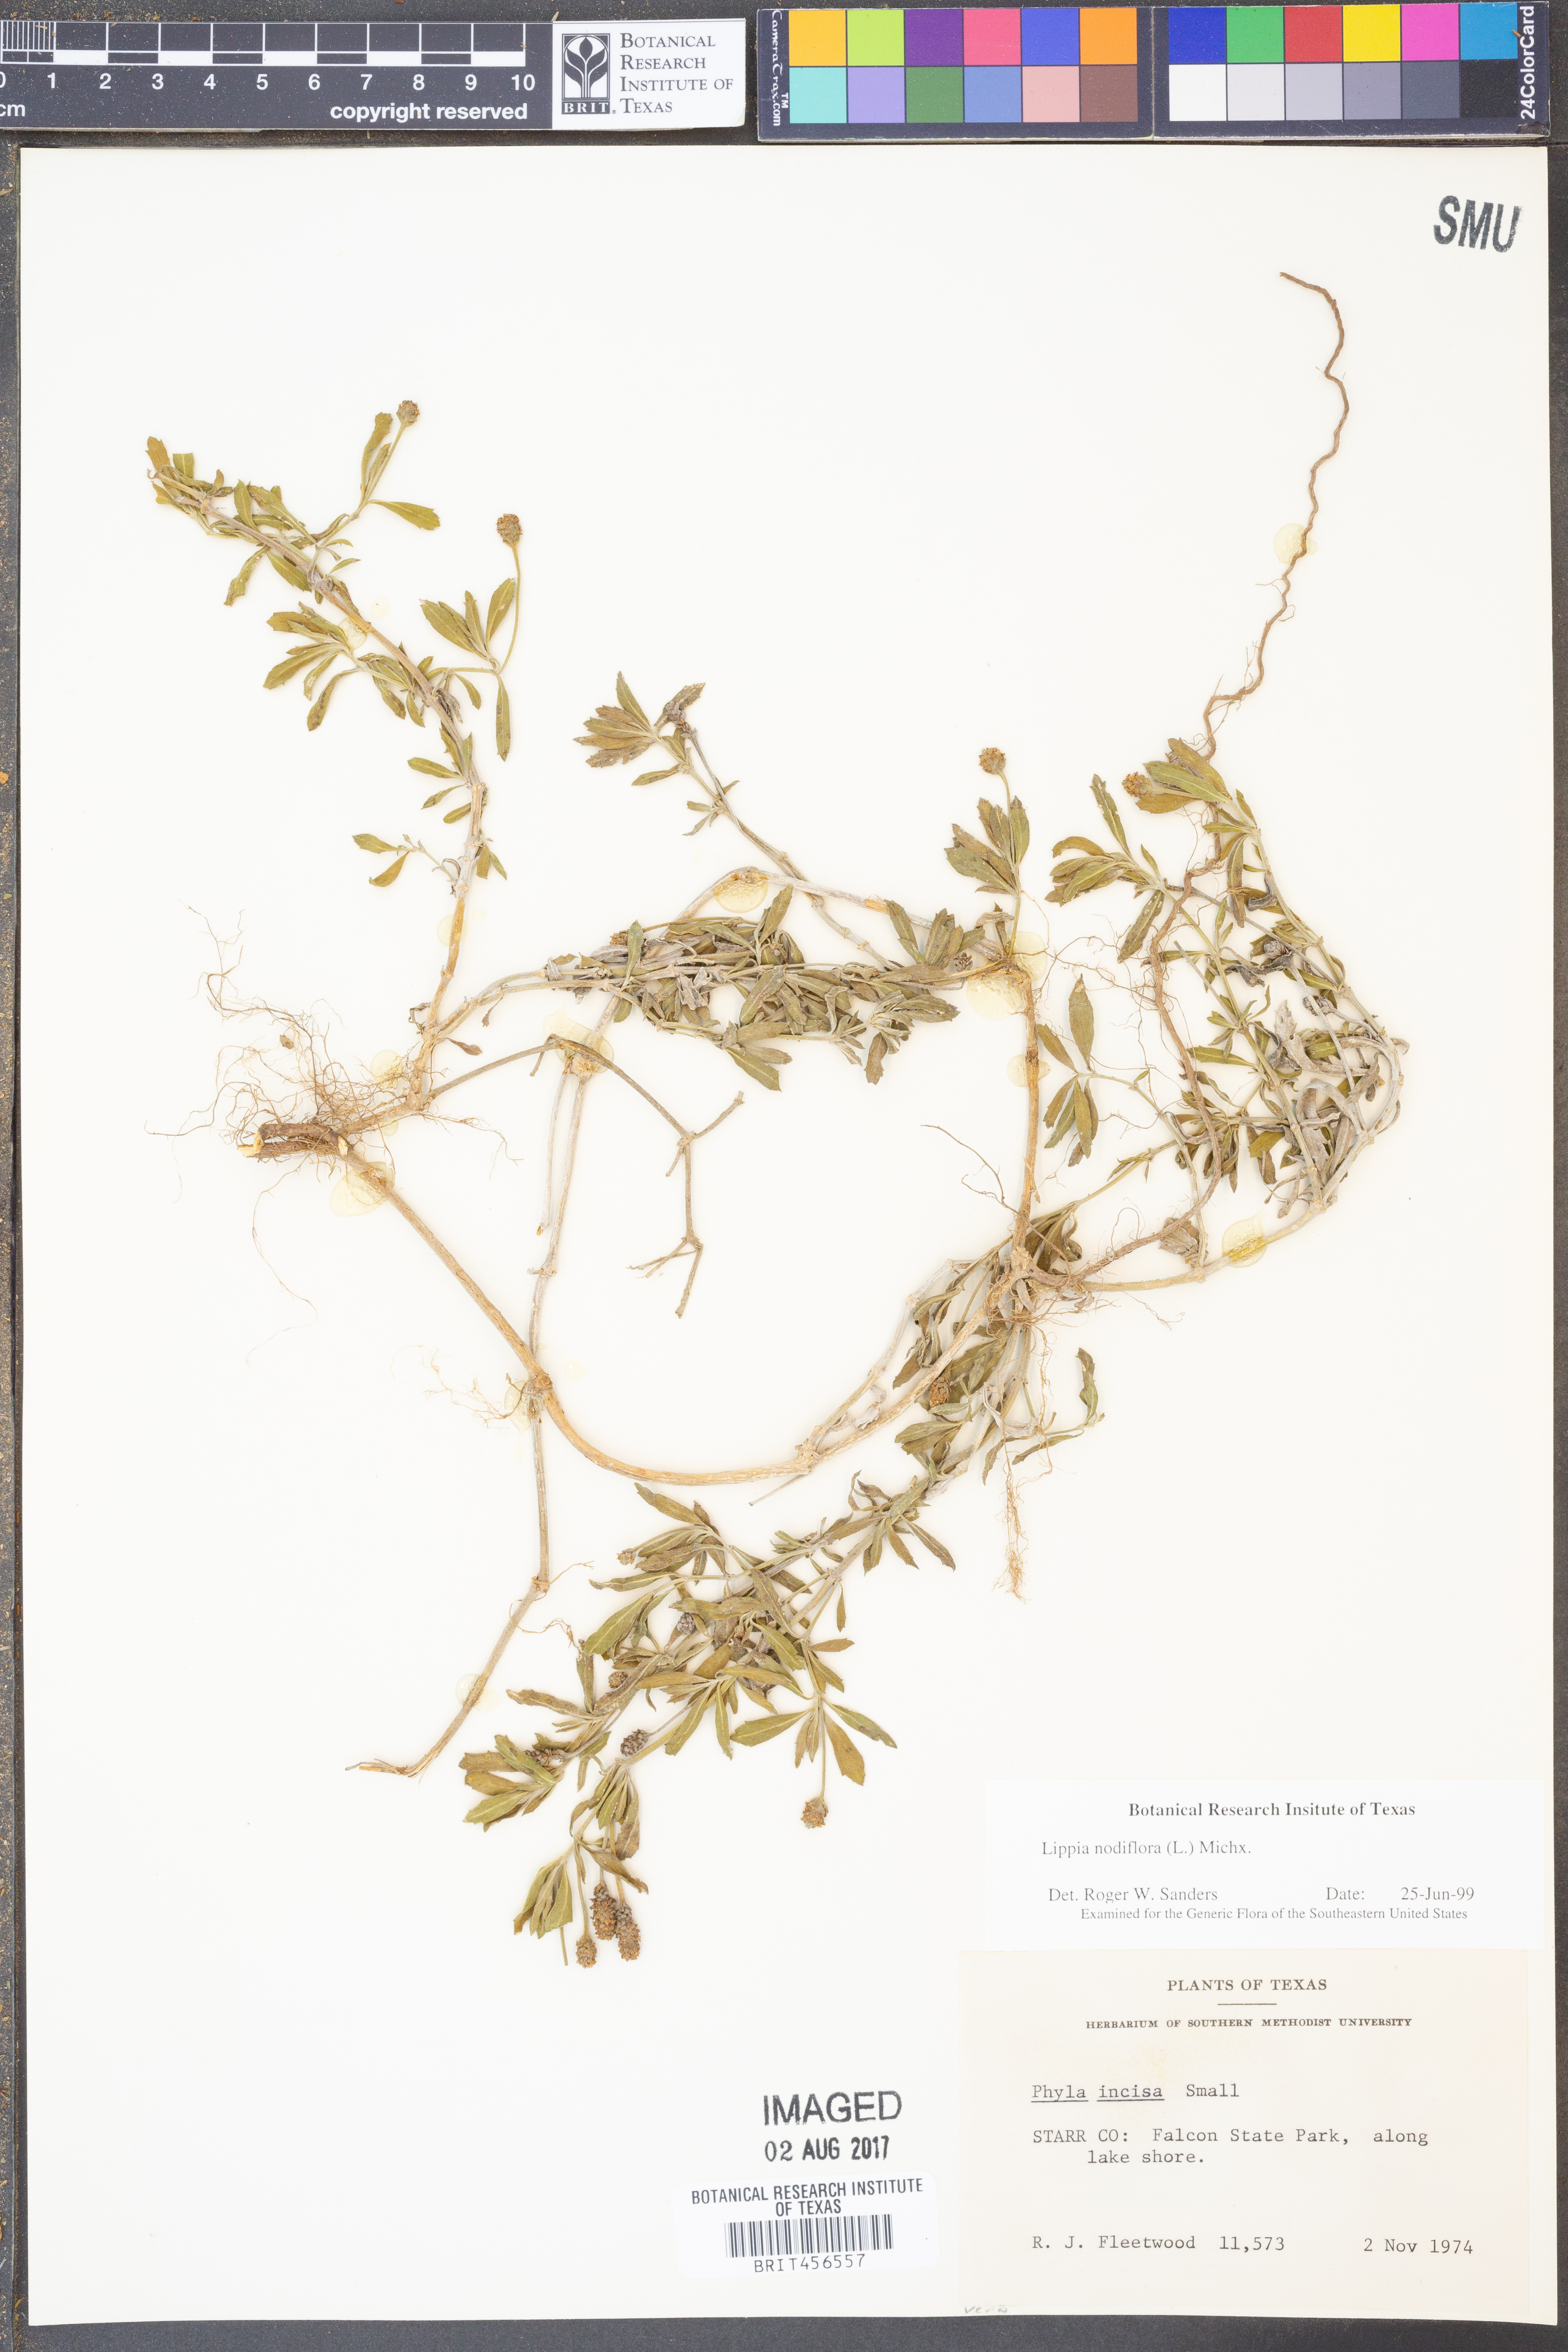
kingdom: Plantae
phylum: Tracheophyta
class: Magnoliopsida
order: Lamiales
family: Verbenaceae
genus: Phyla
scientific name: Phyla nodiflora
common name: Frogfruit
